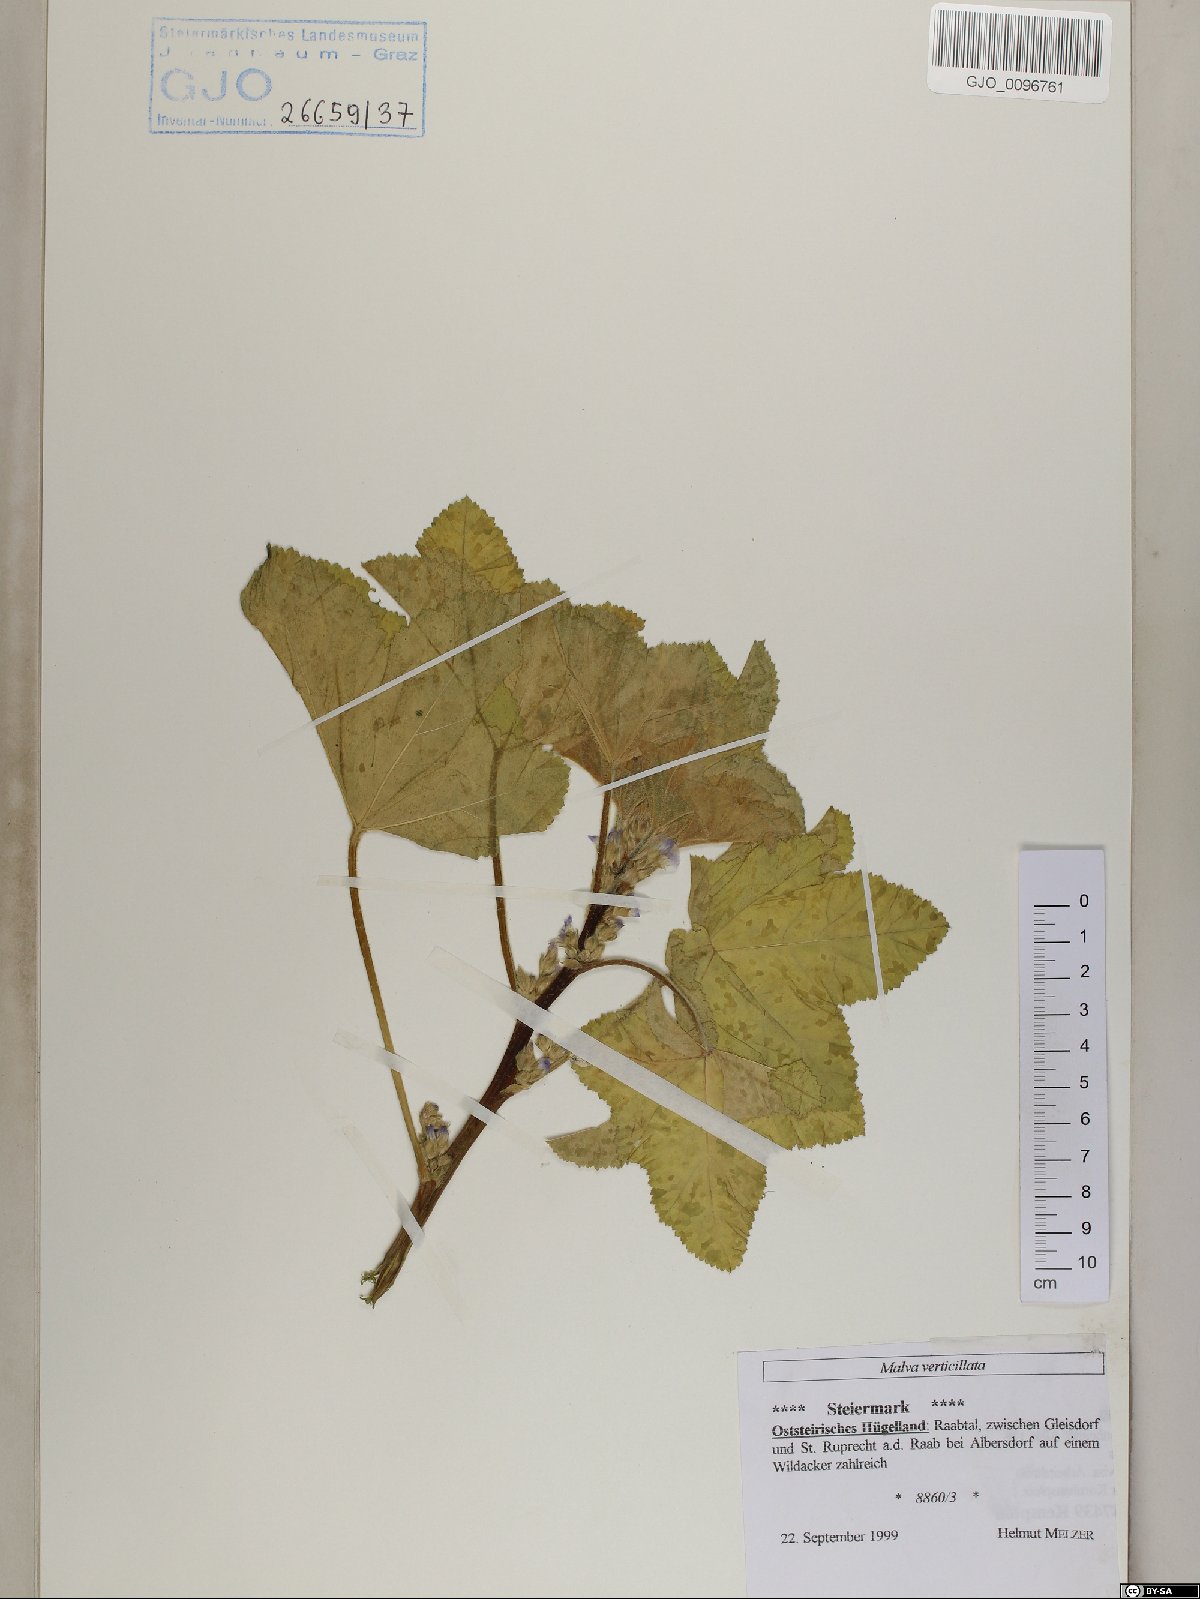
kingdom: Plantae
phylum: Tracheophyta
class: Magnoliopsida
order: Malvales
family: Malvaceae
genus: Malva
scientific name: Malva verticillata
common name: Chinese mallow
